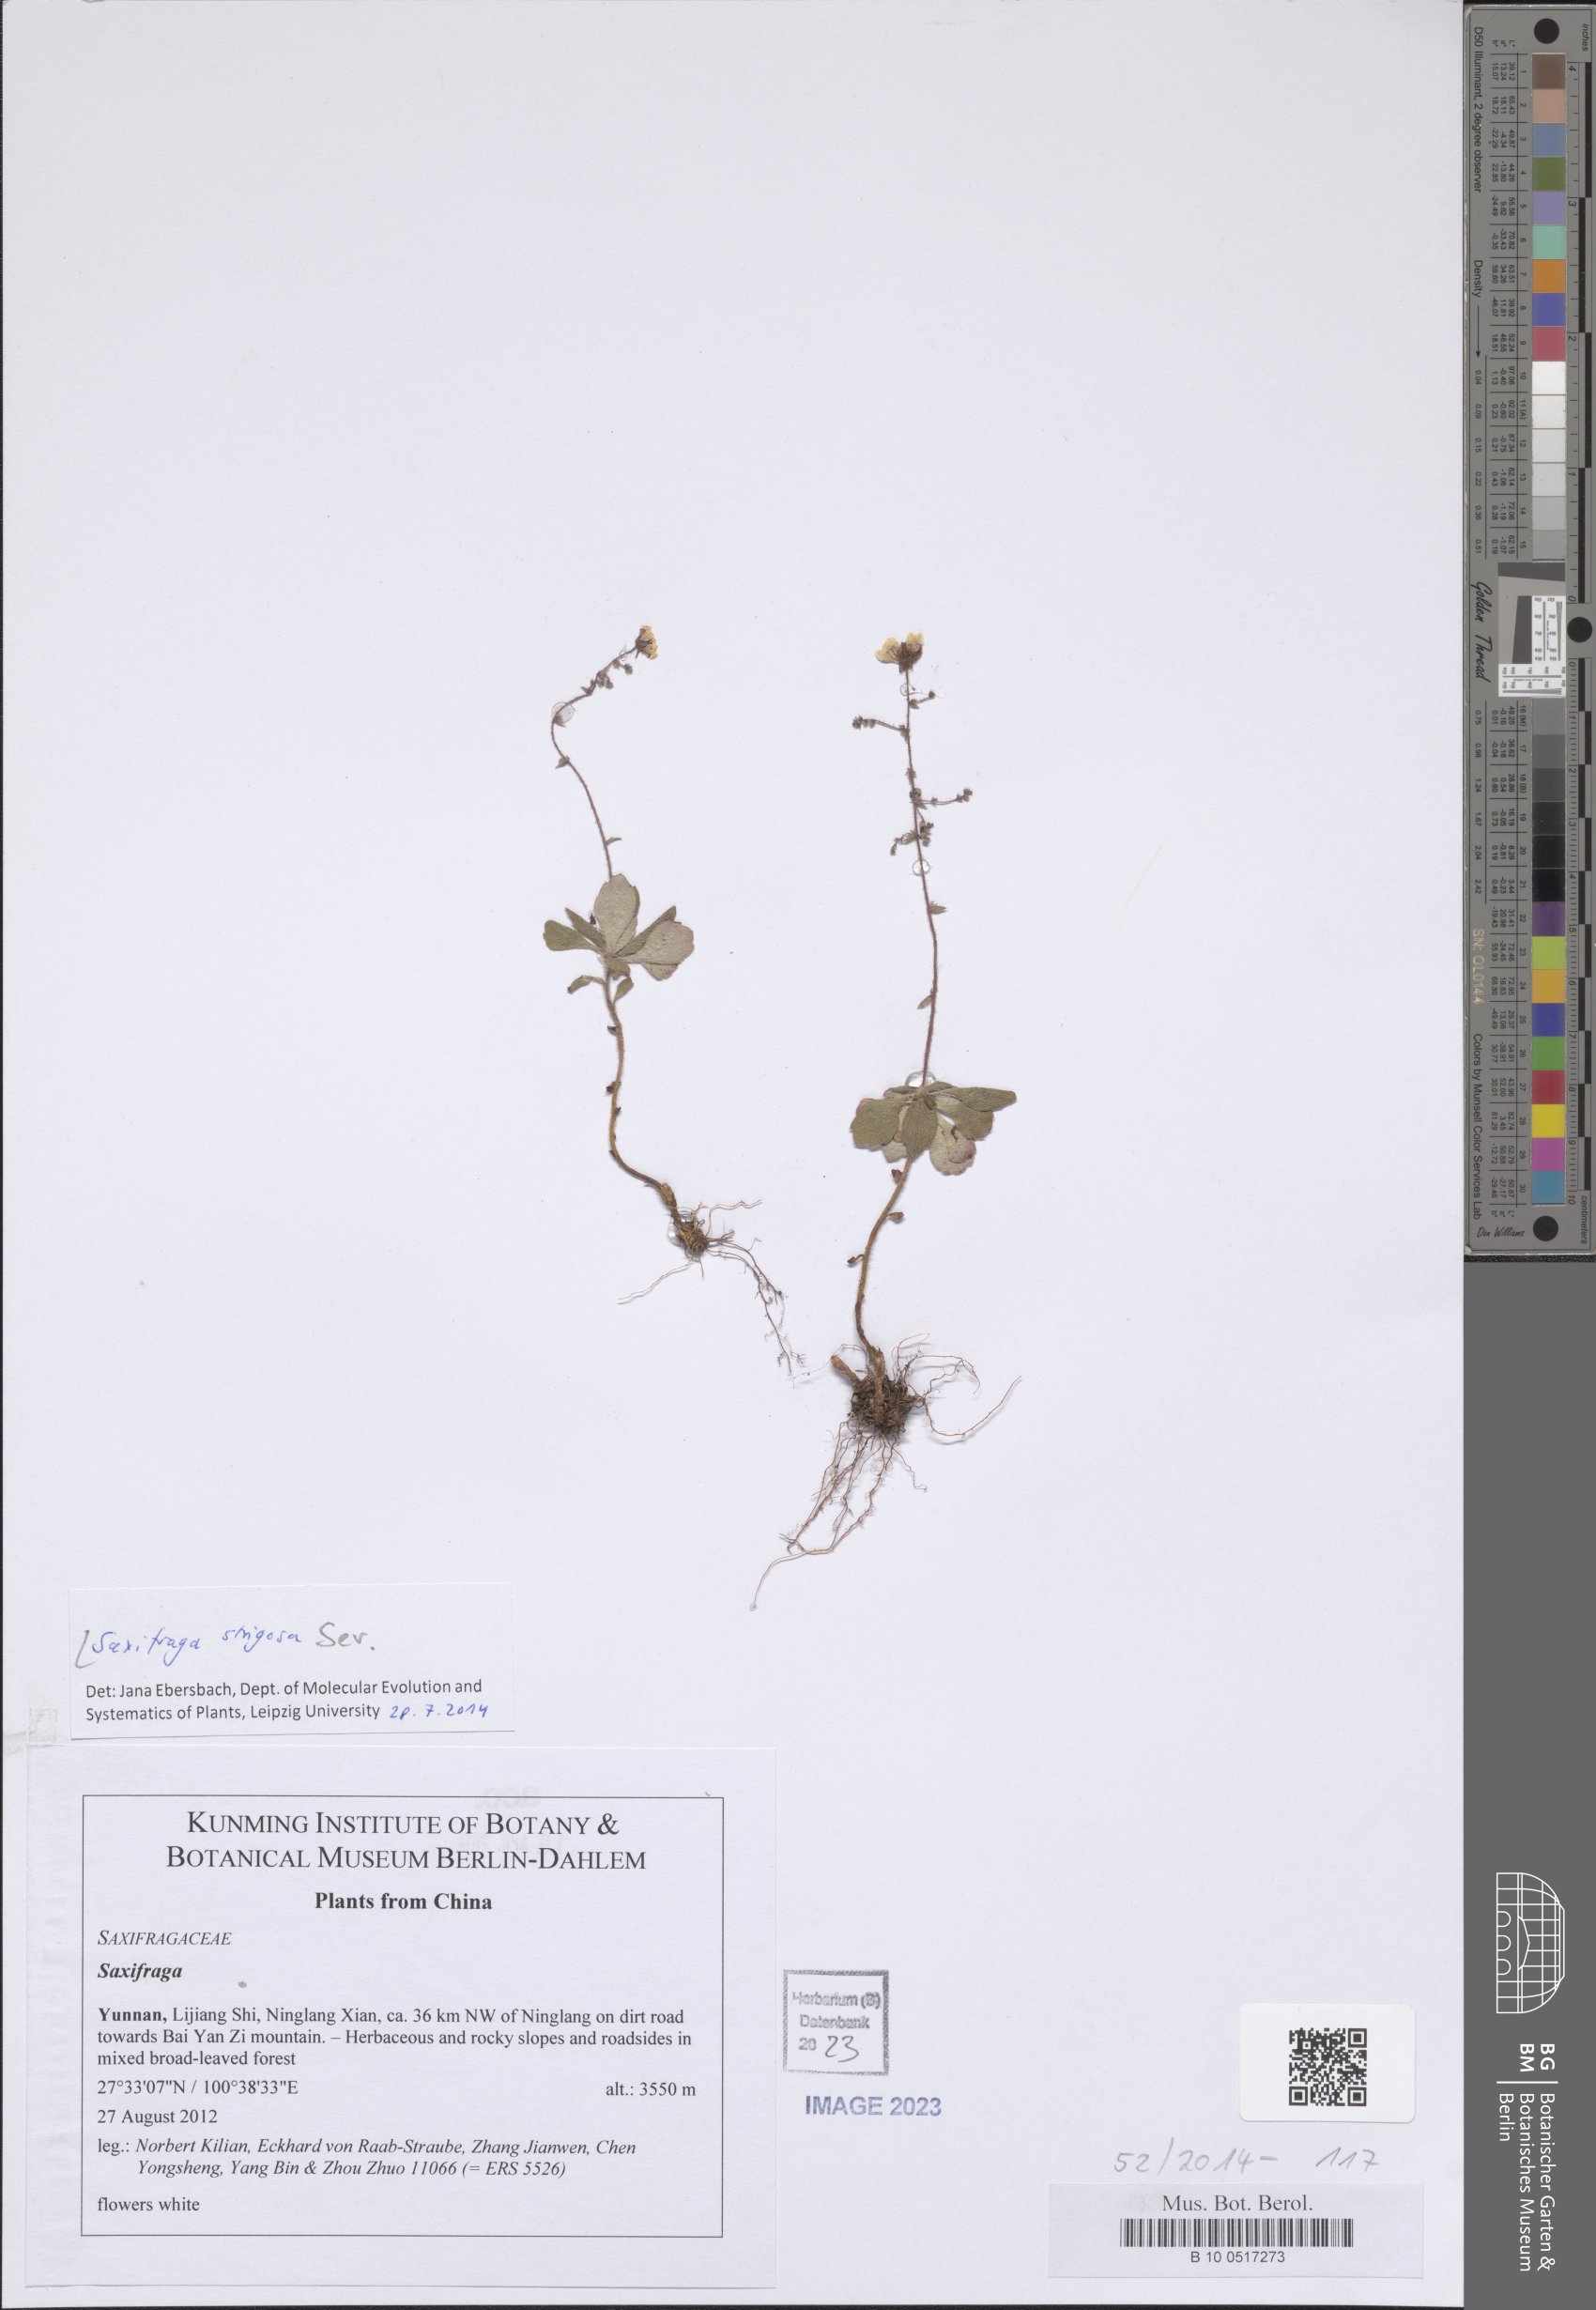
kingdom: Plantae
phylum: Tracheophyta
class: Magnoliopsida
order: Saxifragales
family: Saxifragaceae
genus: Saxifraga
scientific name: Saxifraga strigosa
